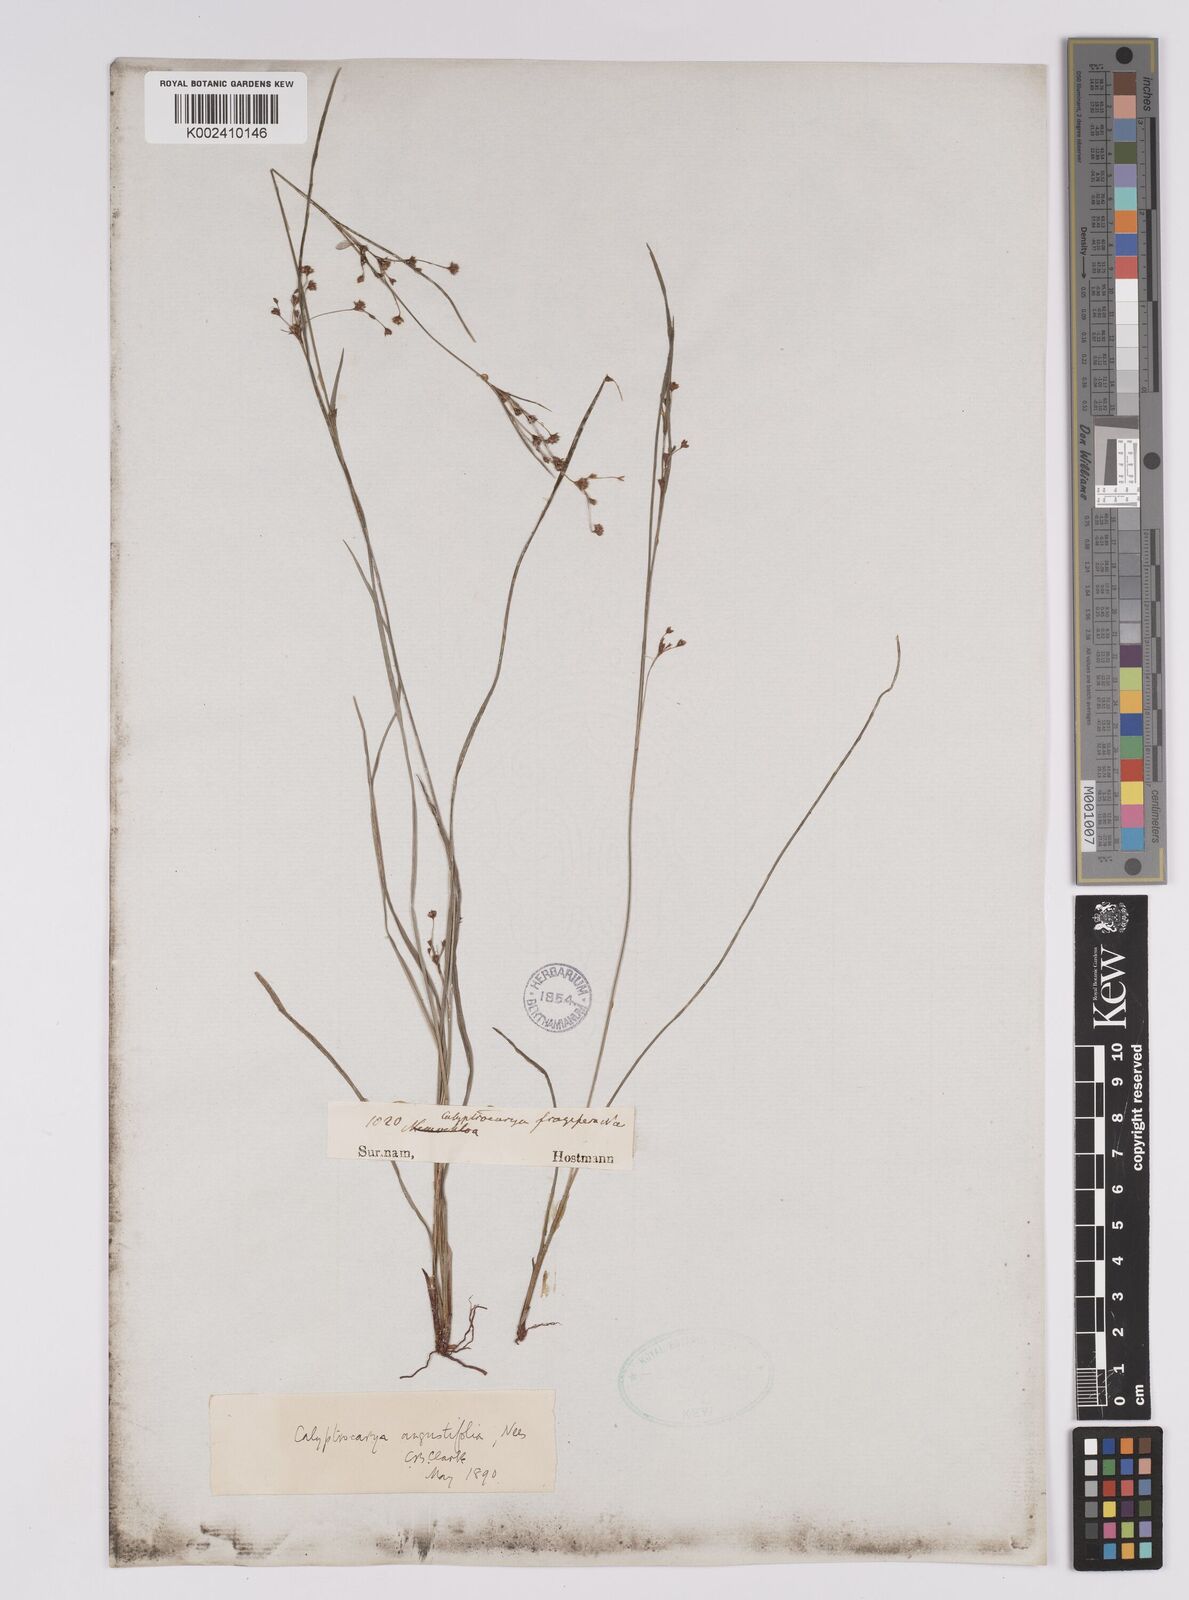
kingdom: Plantae
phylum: Tracheophyta
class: Liliopsida
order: Poales
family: Cyperaceae
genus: Calyptrocarya
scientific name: Calyptrocarya glomerulata
